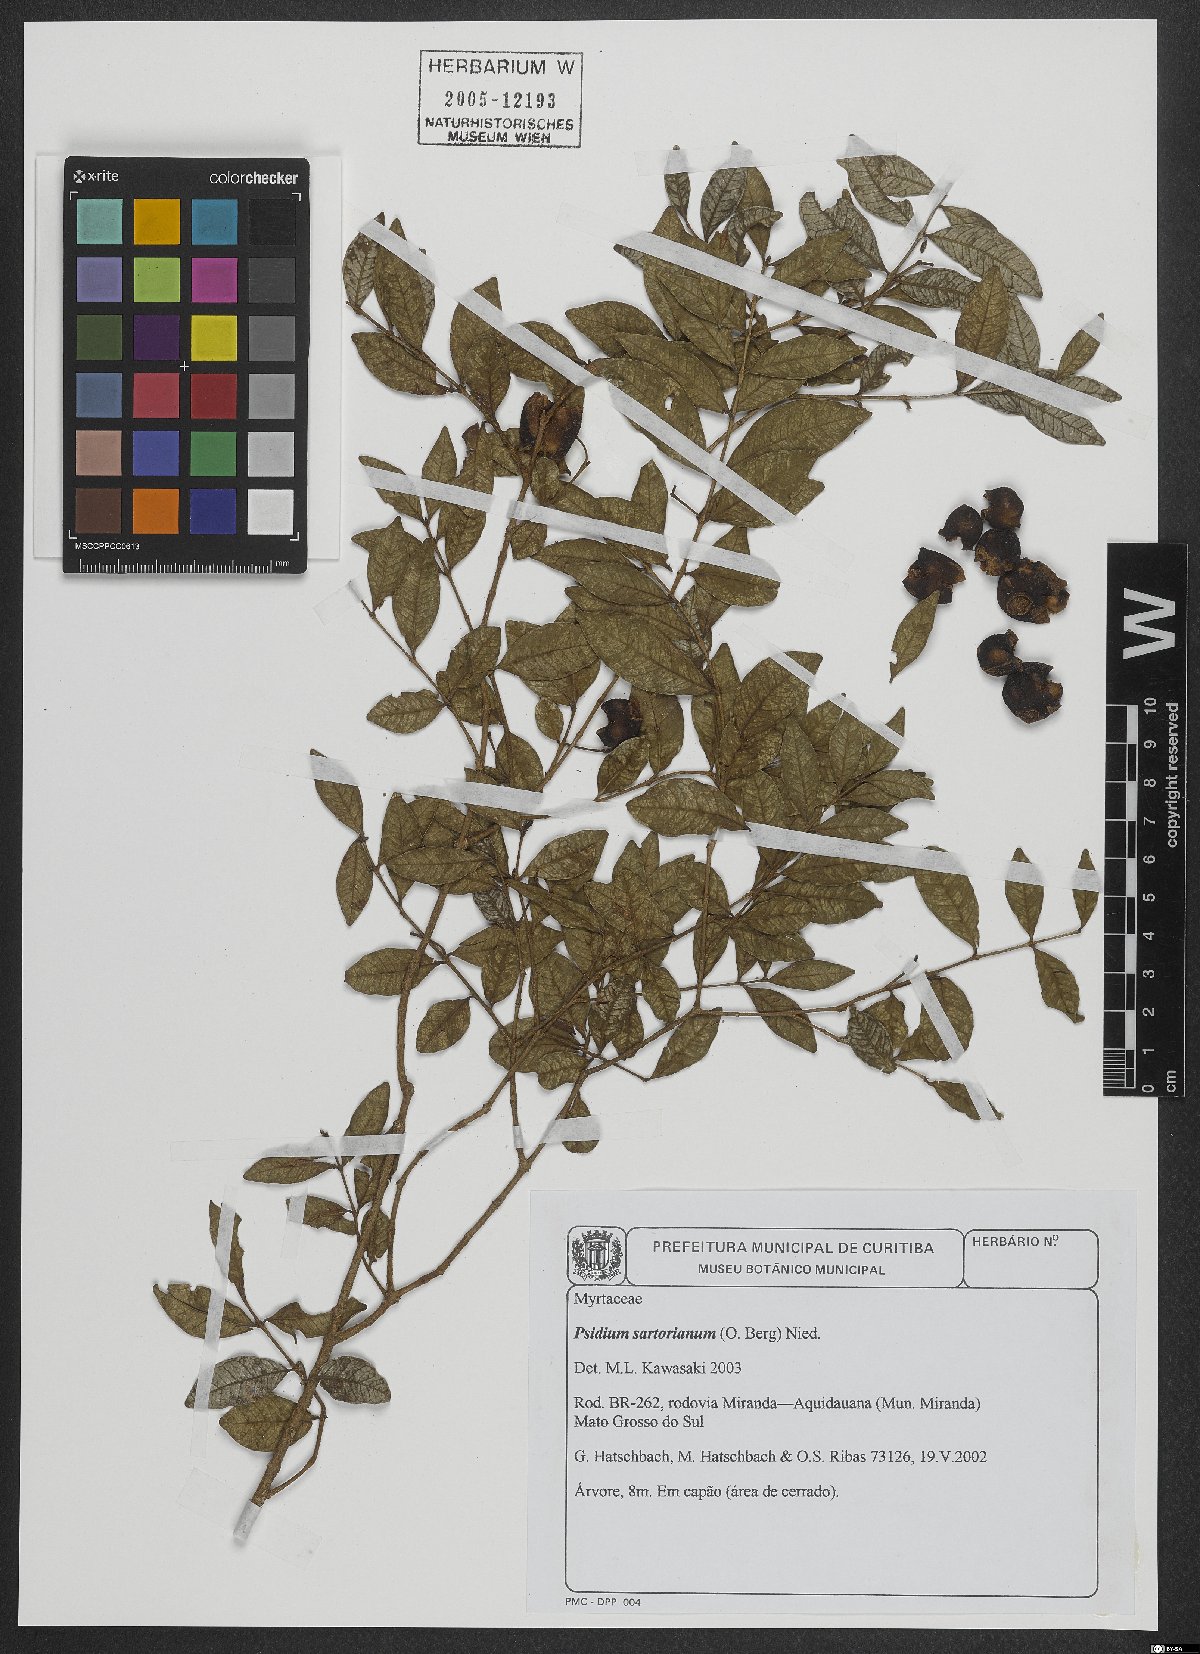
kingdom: Plantae
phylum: Tracheophyta
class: Magnoliopsida
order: Myrtales
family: Myrtaceae
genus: Psidium
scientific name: Psidium sartorianum
